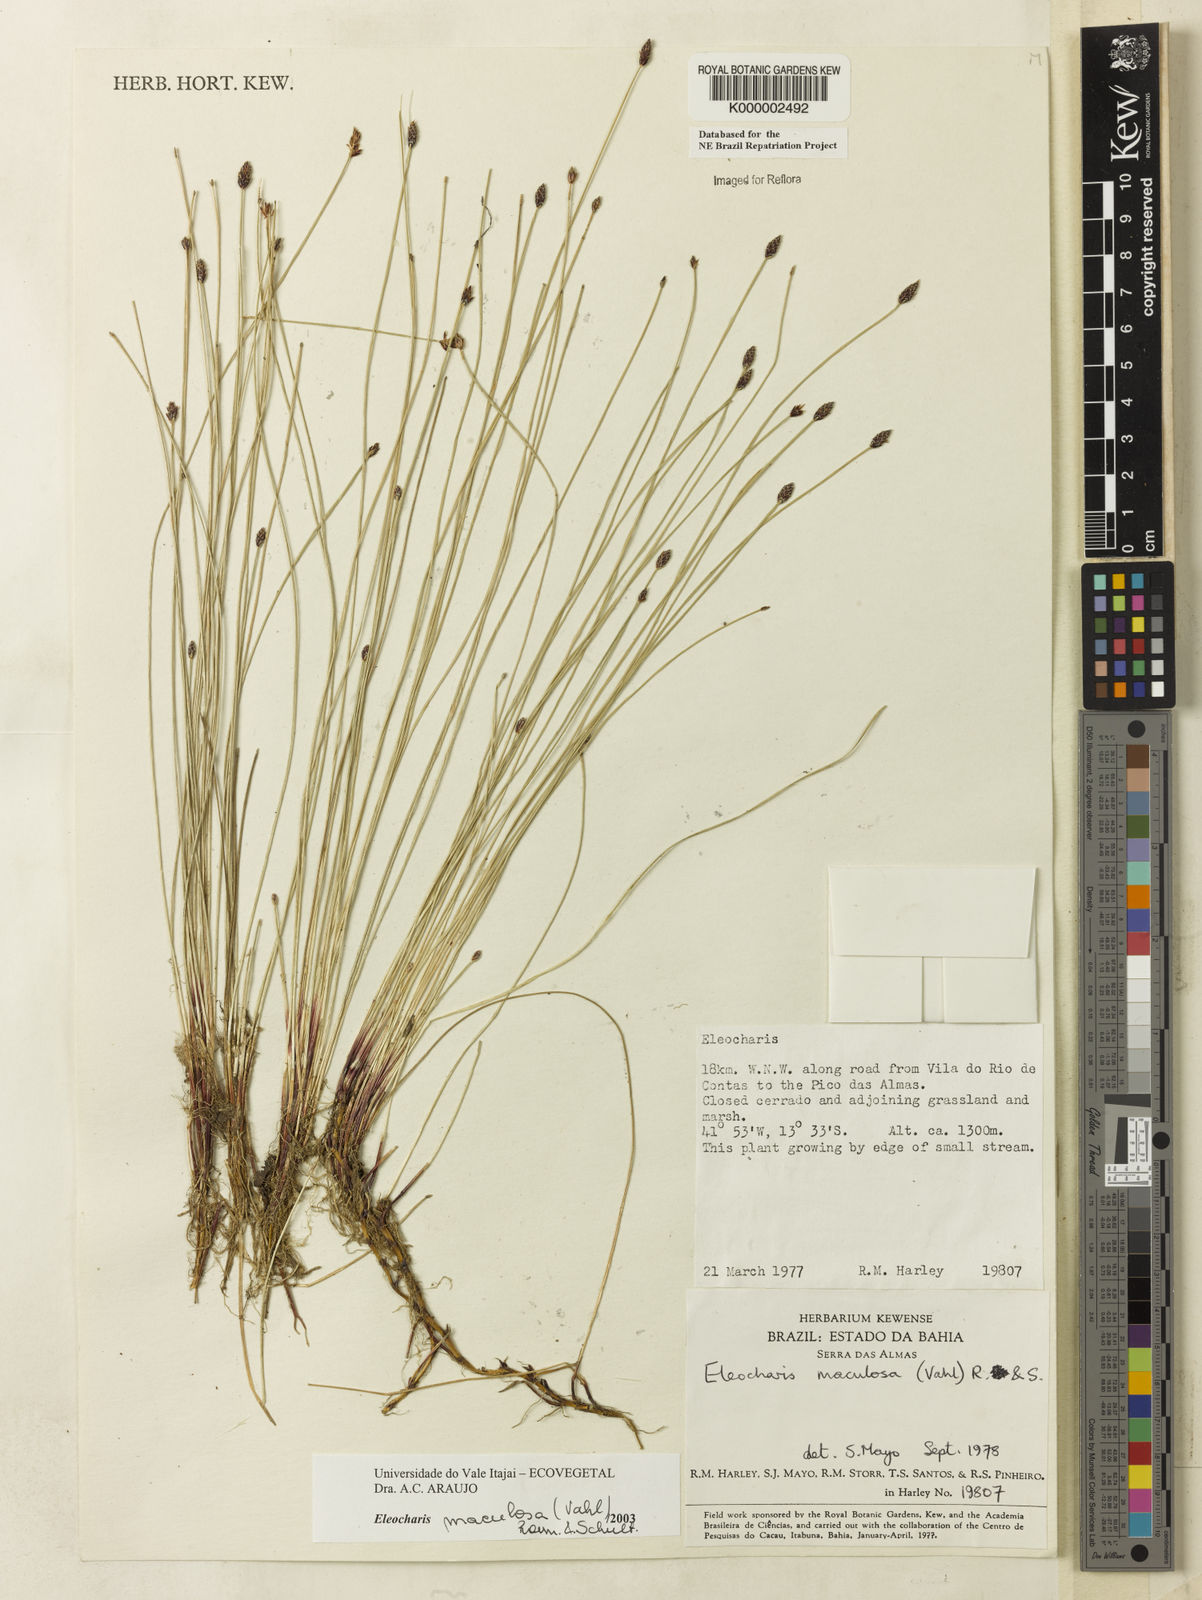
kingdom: Plantae
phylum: Tracheophyta
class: Liliopsida
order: Poales
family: Cyperaceae
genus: Eleocharis
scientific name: Eleocharis maculosa
